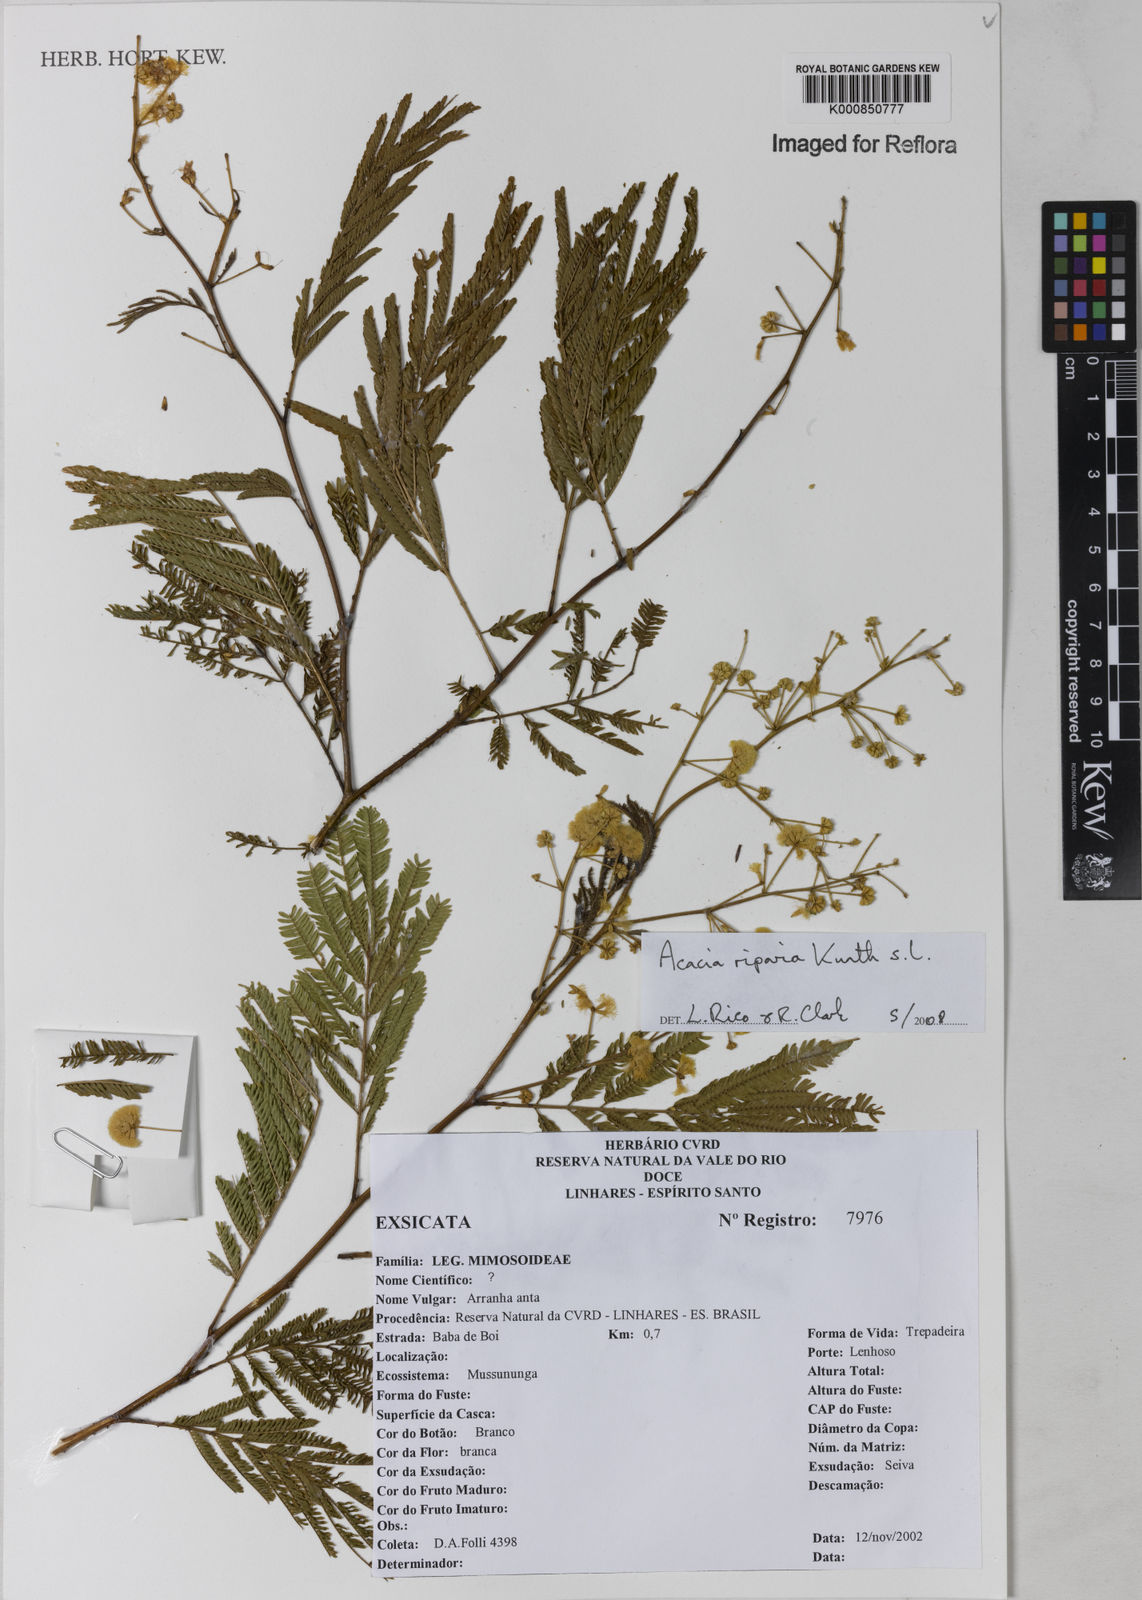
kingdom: Plantae
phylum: Tracheophyta
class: Magnoliopsida
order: Fabales
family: Fabaceae
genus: Senegalia
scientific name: Senegalia riparia
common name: Catch-and-keep
